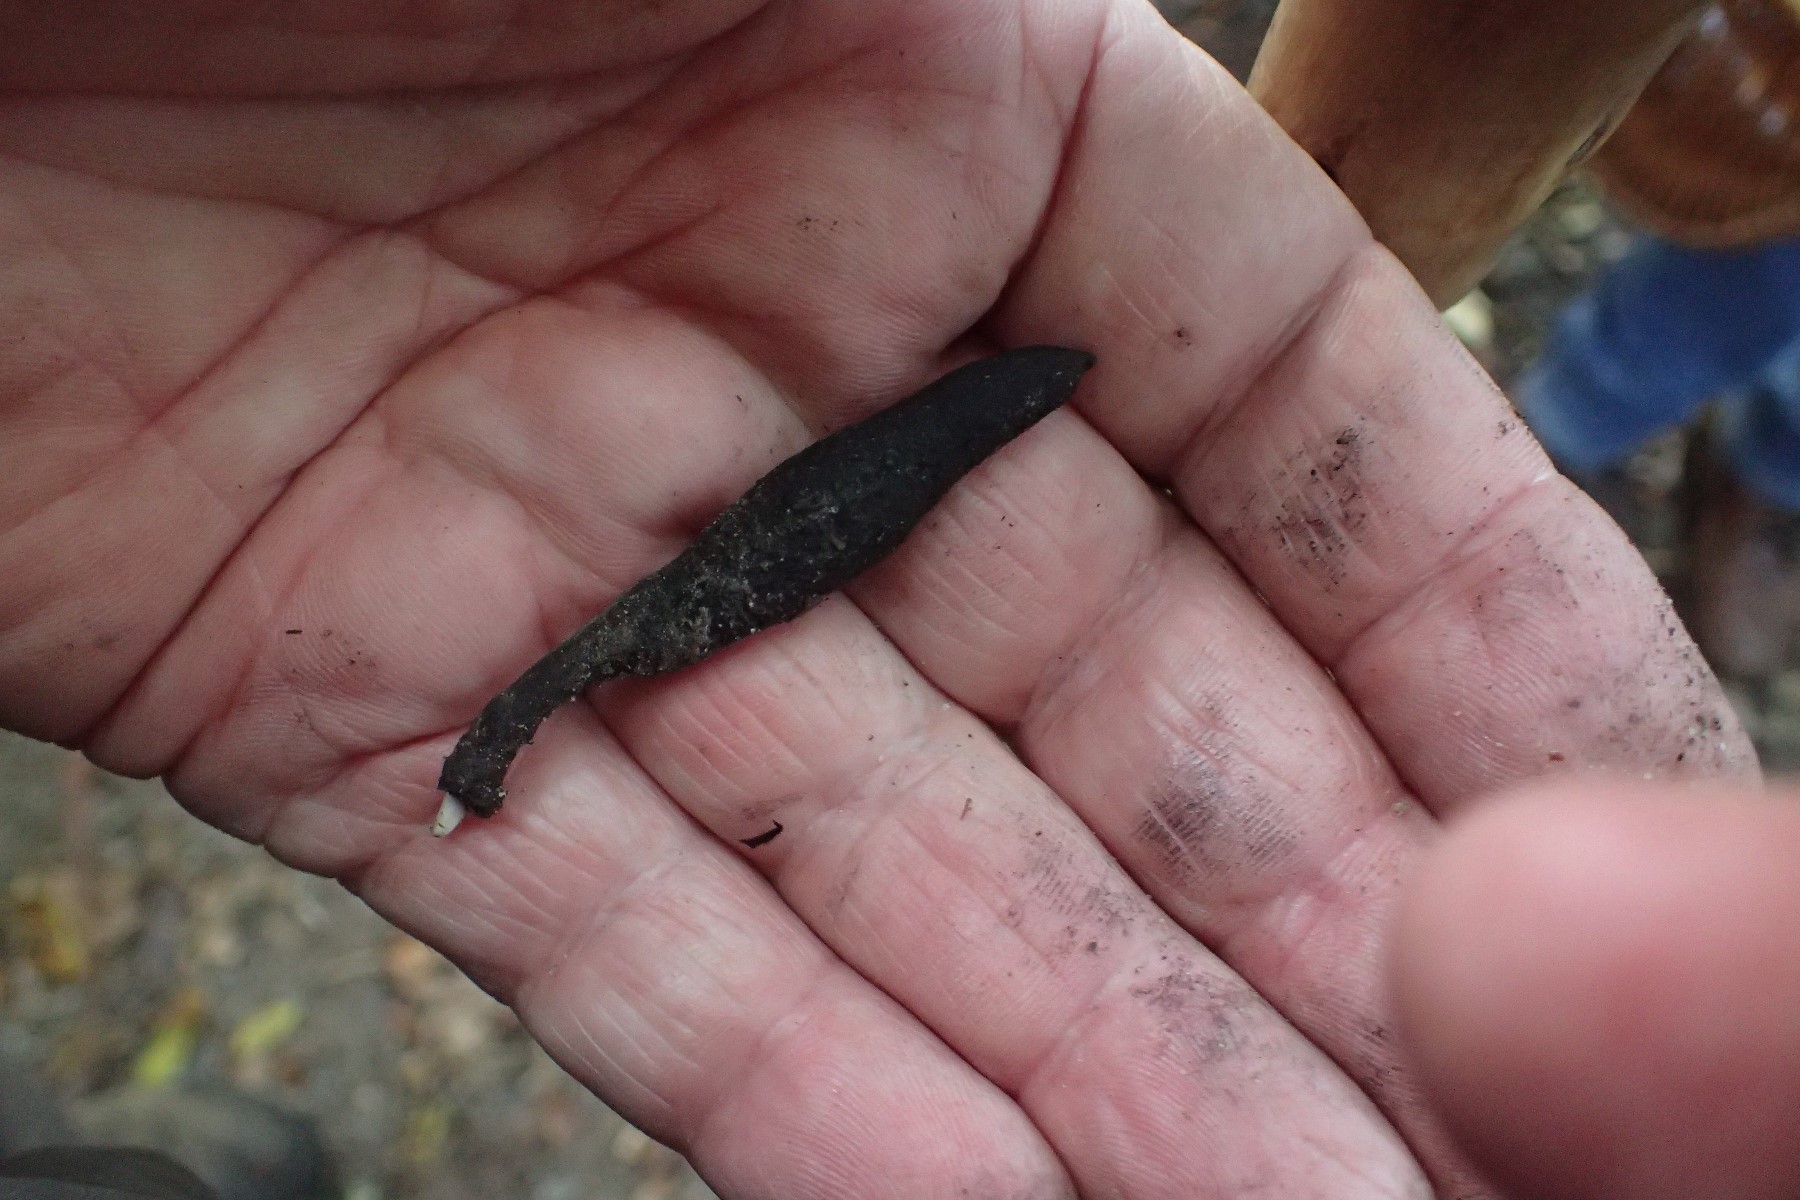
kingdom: Fungi
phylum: Ascomycota
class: Sordariomycetes
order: Xylariales
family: Xylariaceae
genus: Xylaria
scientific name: Xylaria longipes
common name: slank stødsvamp
